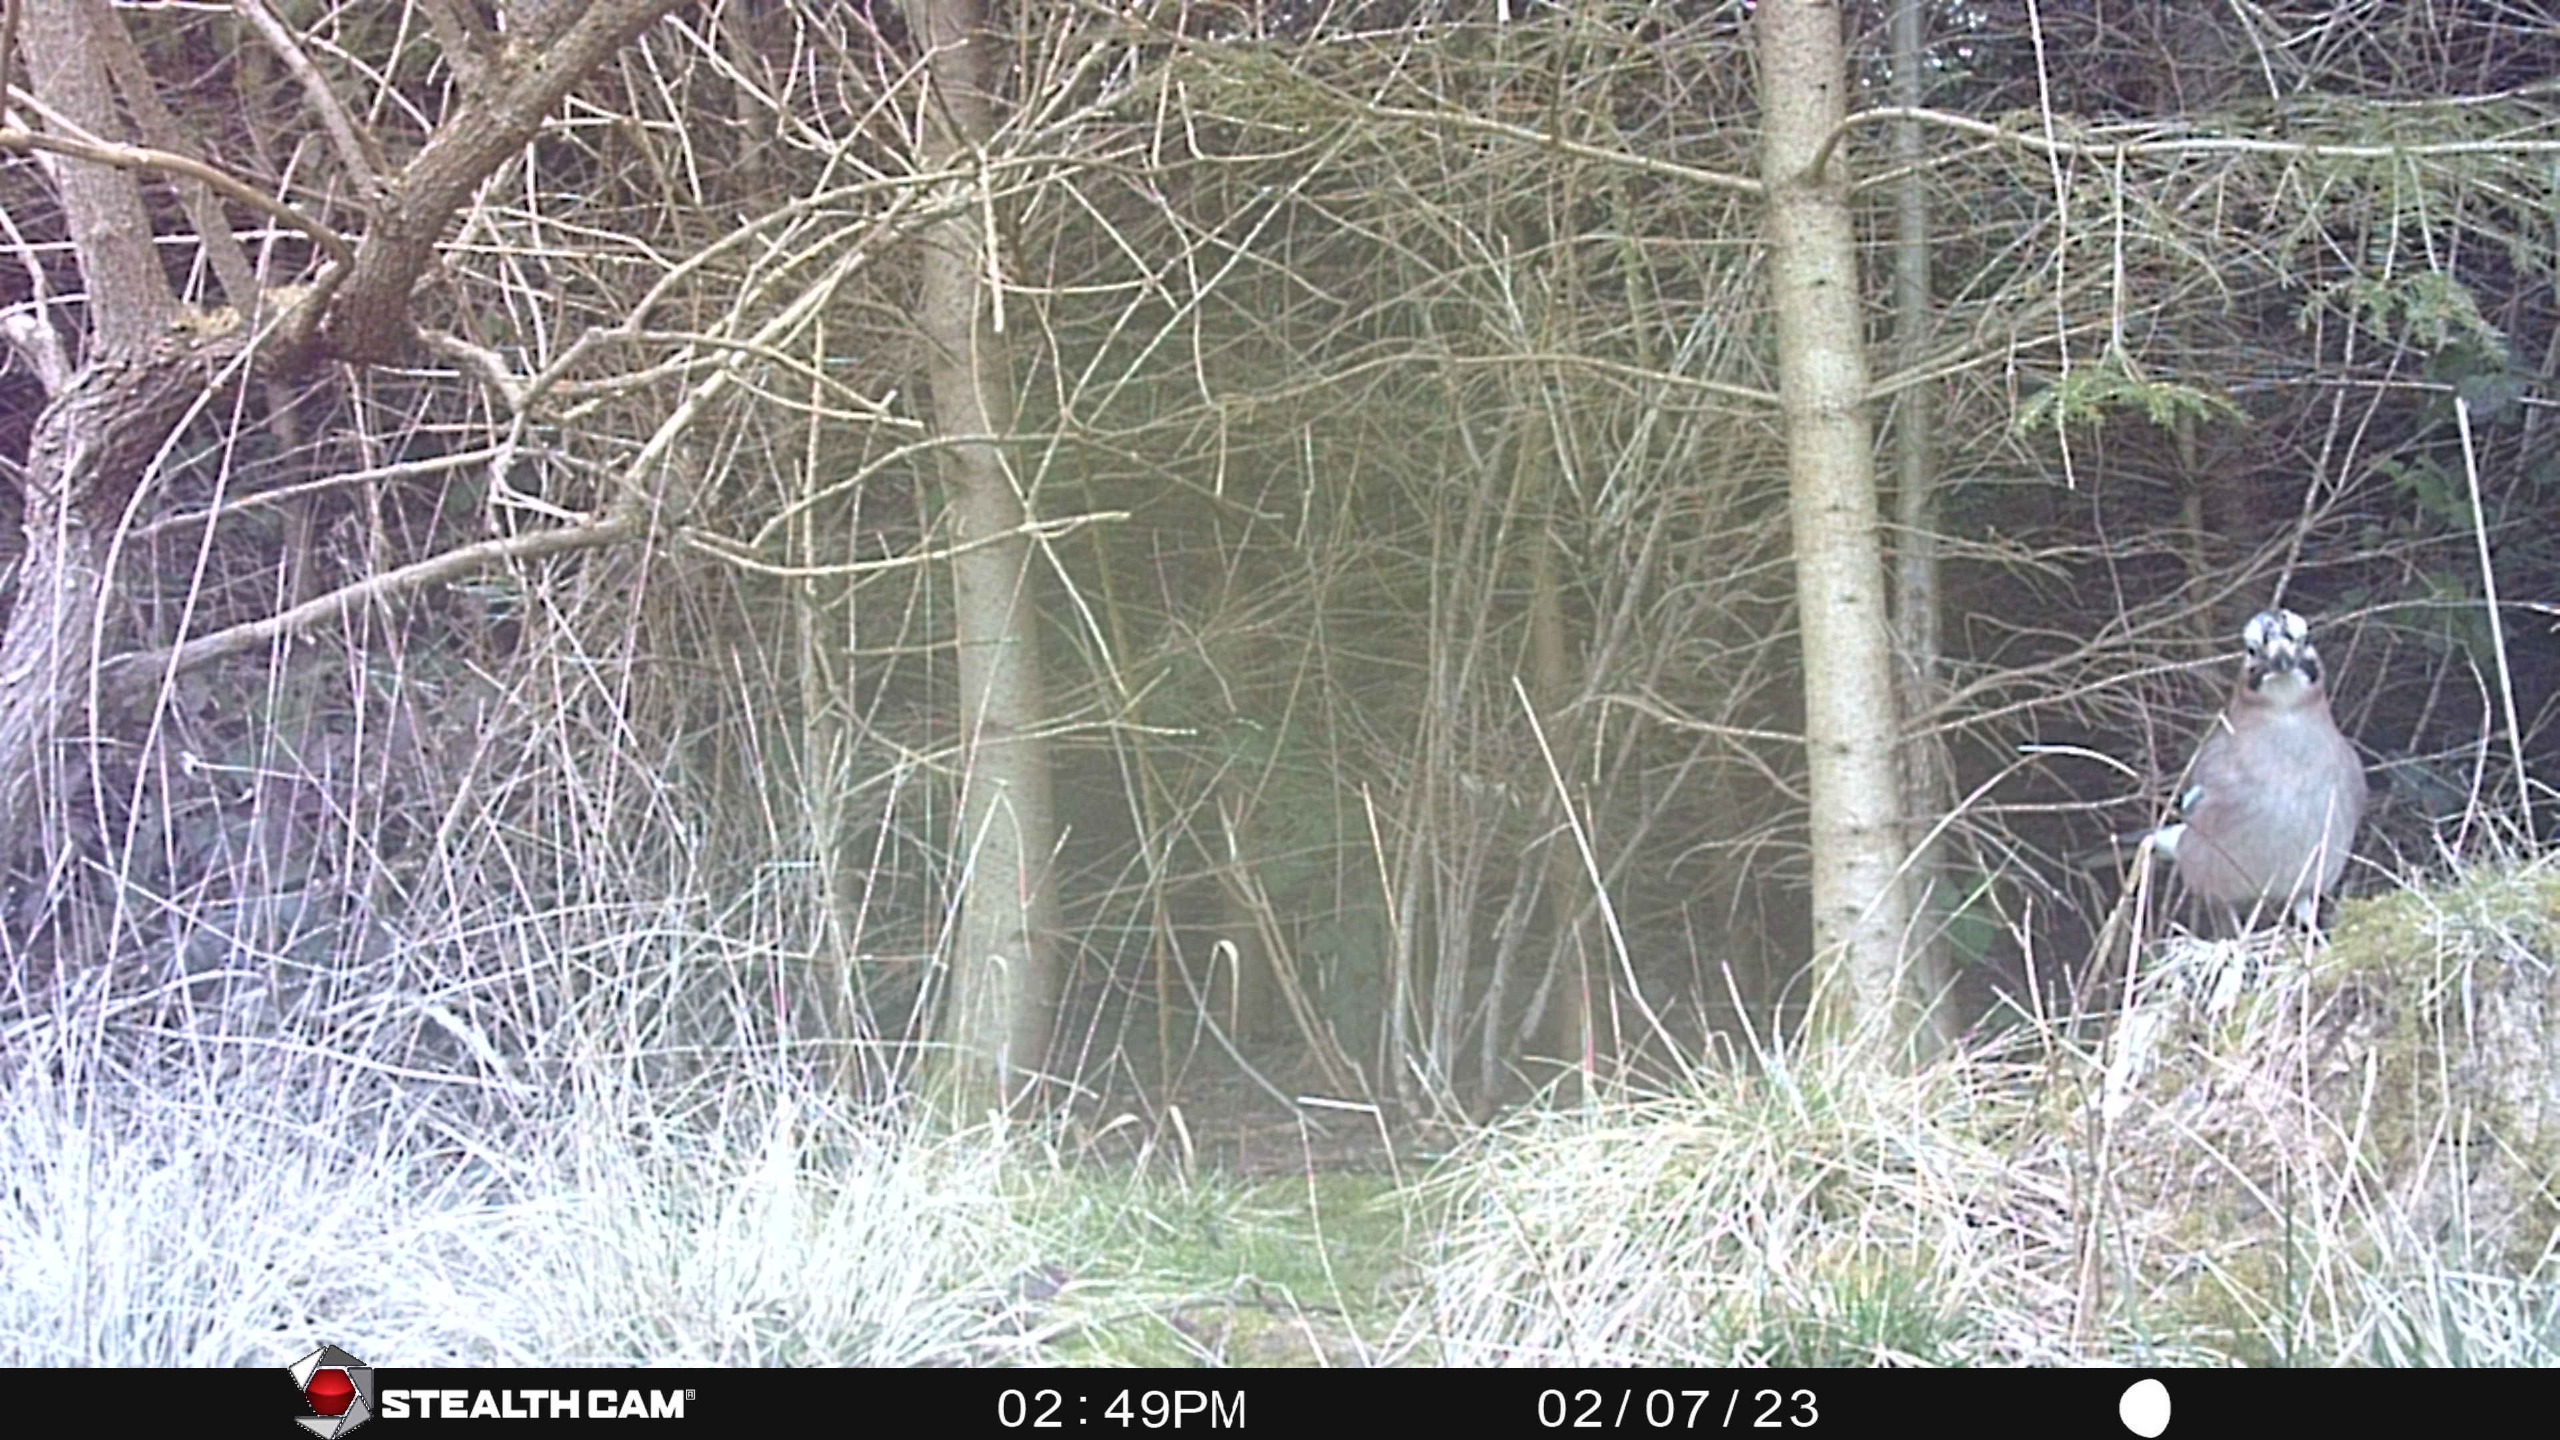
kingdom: Animalia
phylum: Chordata
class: Aves
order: Passeriformes
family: Corvidae
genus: Garrulus
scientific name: Garrulus glandarius
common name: Skovskade
